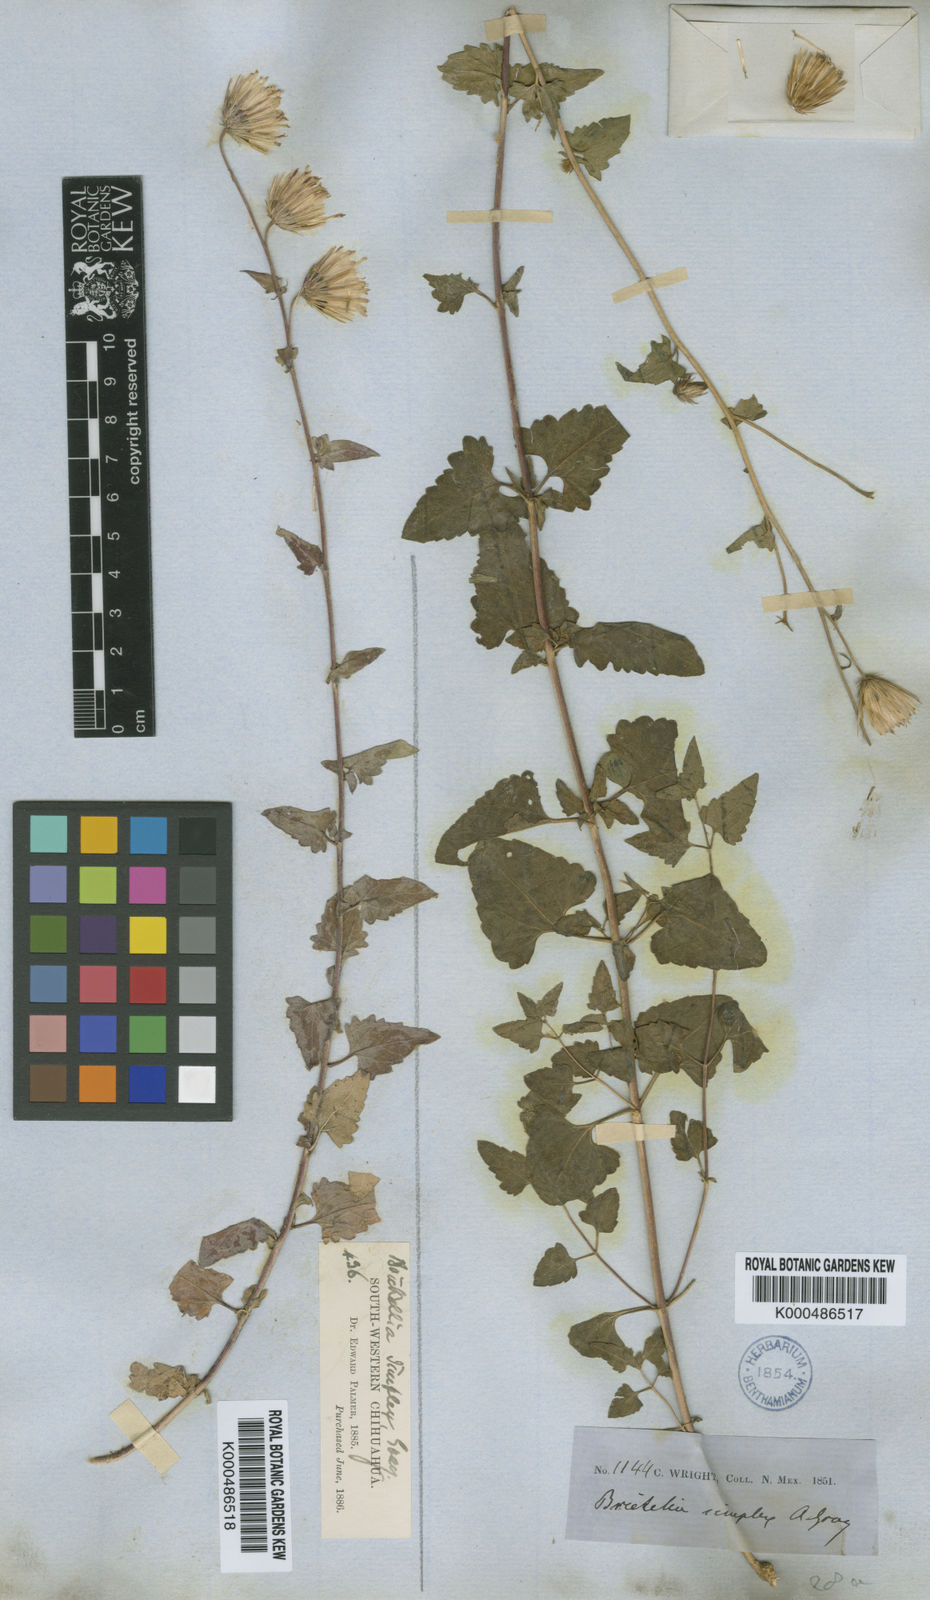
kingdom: Plantae
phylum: Tracheophyta
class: Magnoliopsida
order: Asterales
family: Asteraceae
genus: Brickellia
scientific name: Brickellia simplex
